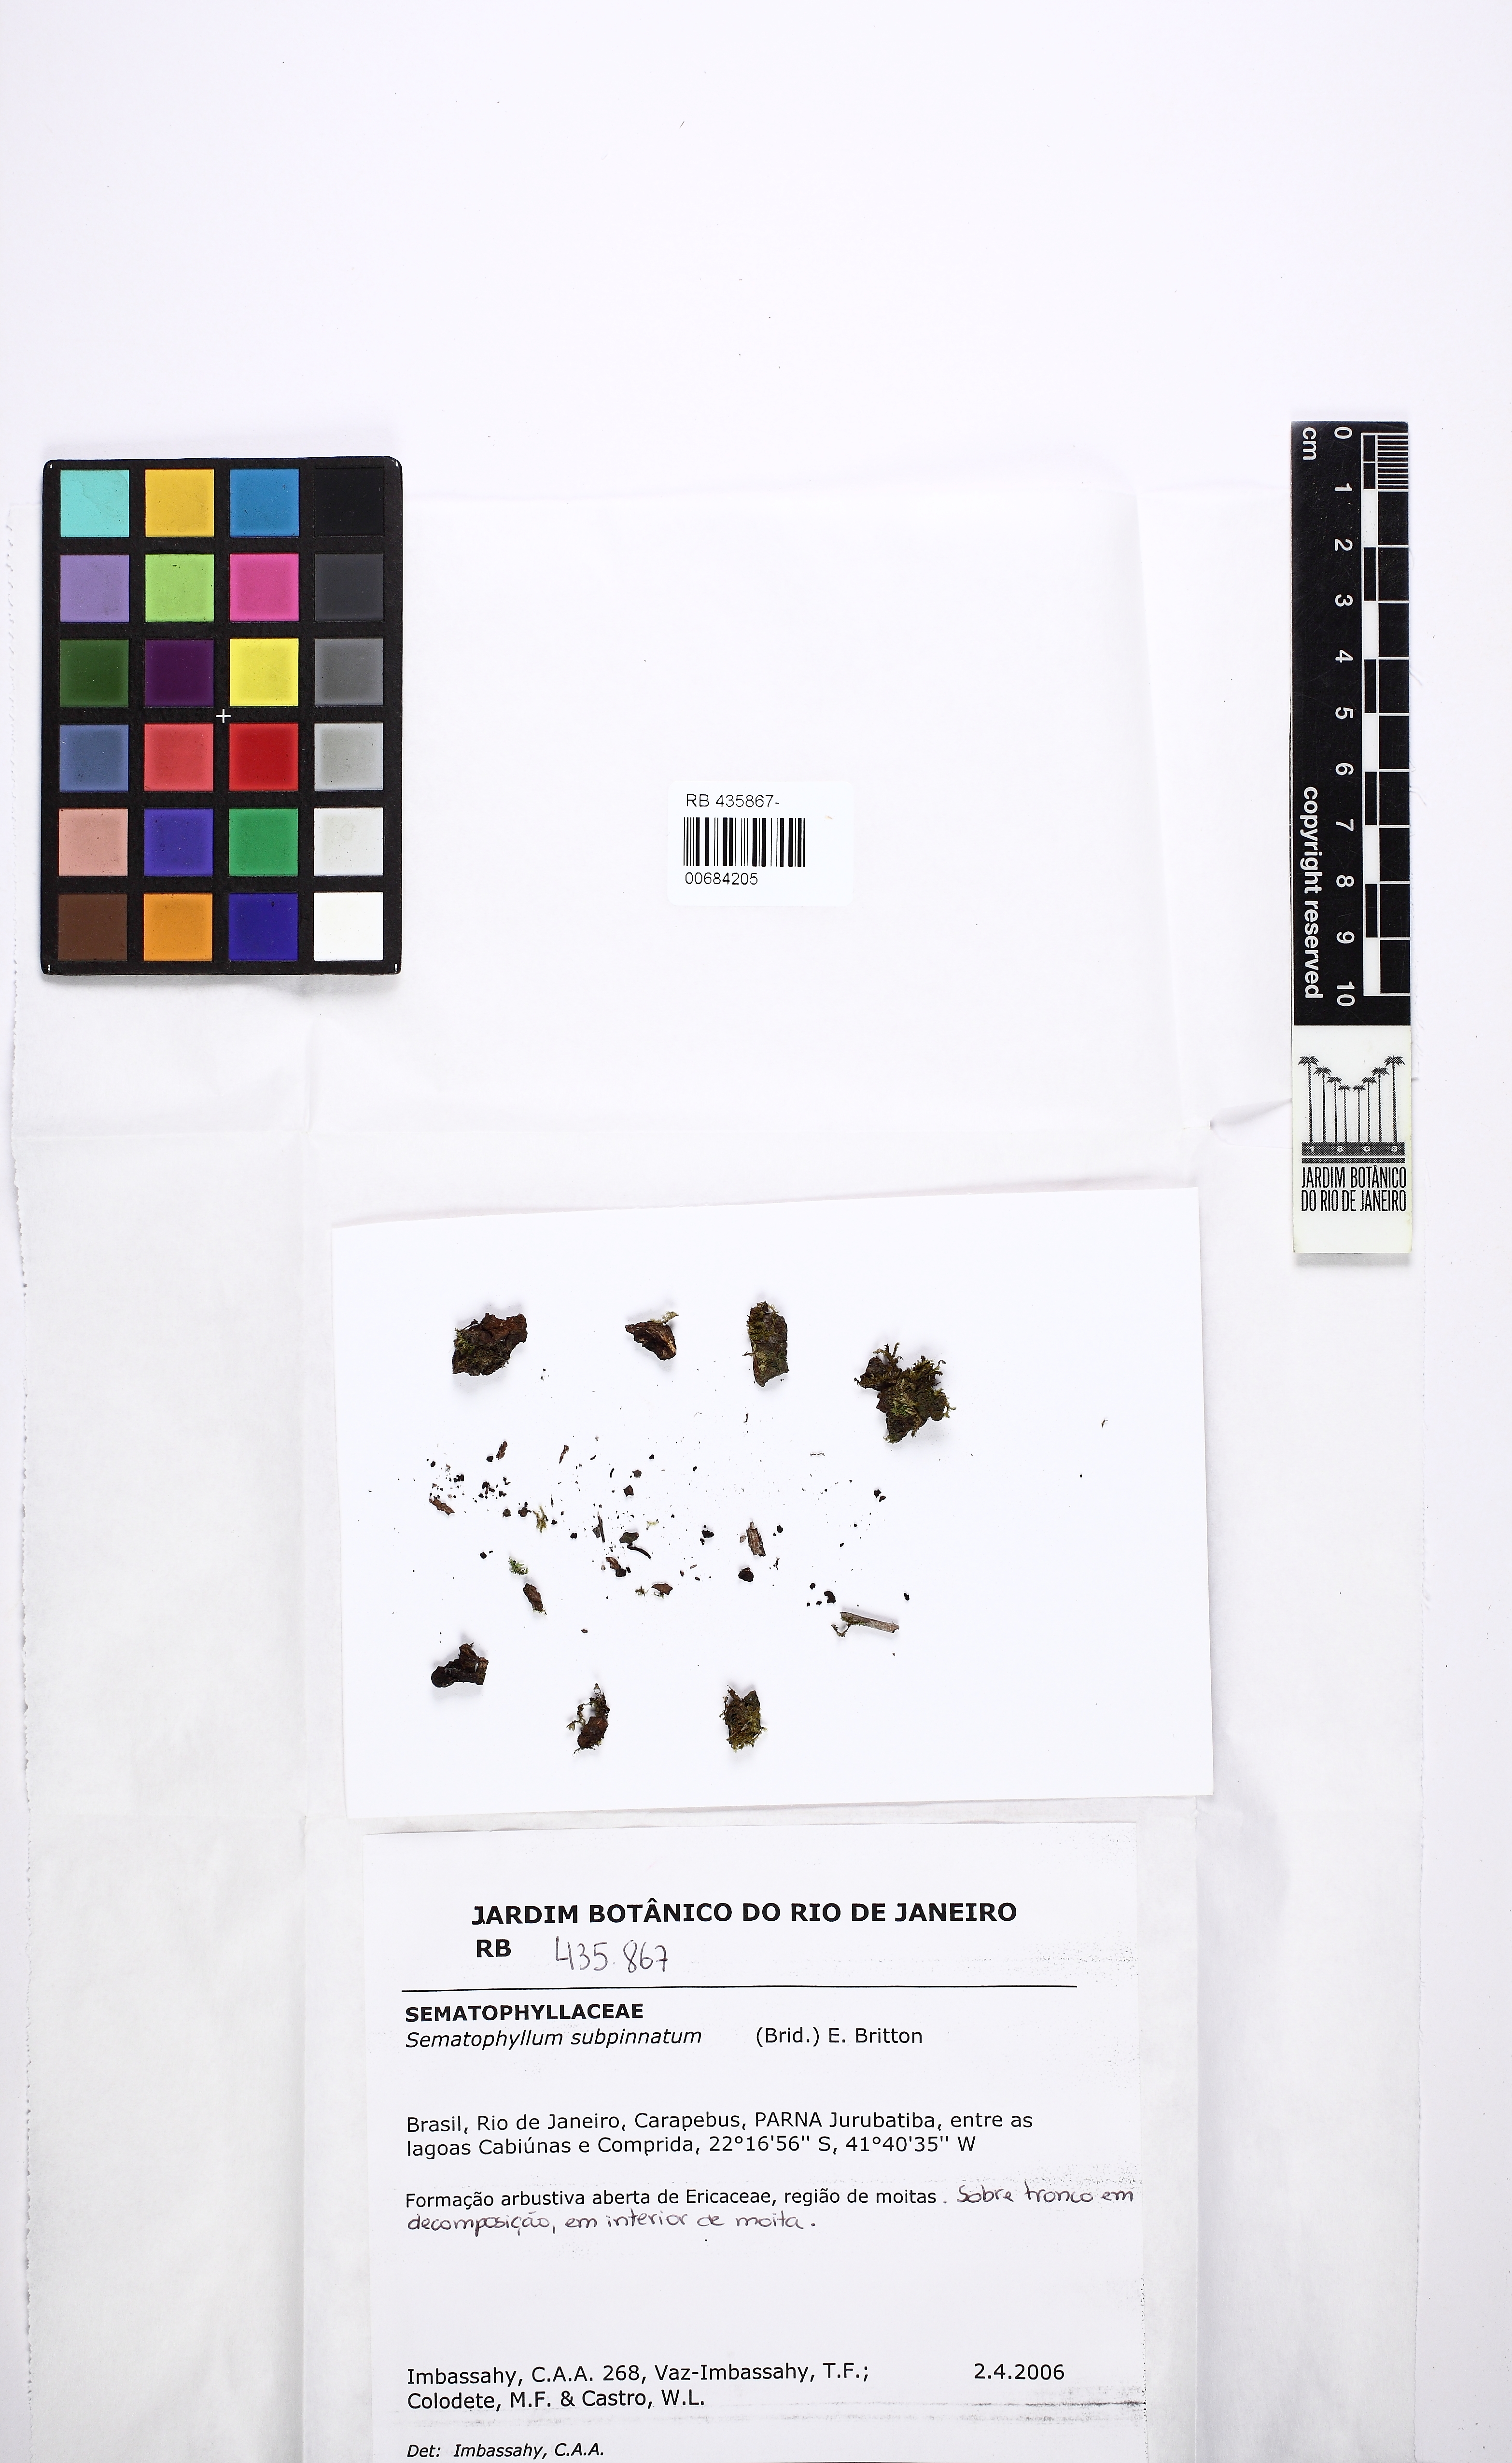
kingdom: Plantae
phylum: Bryophyta
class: Bryopsida
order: Hypnales
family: Sematophyllaceae
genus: Brittonodoxa
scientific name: Brittonodoxa subpinnata
